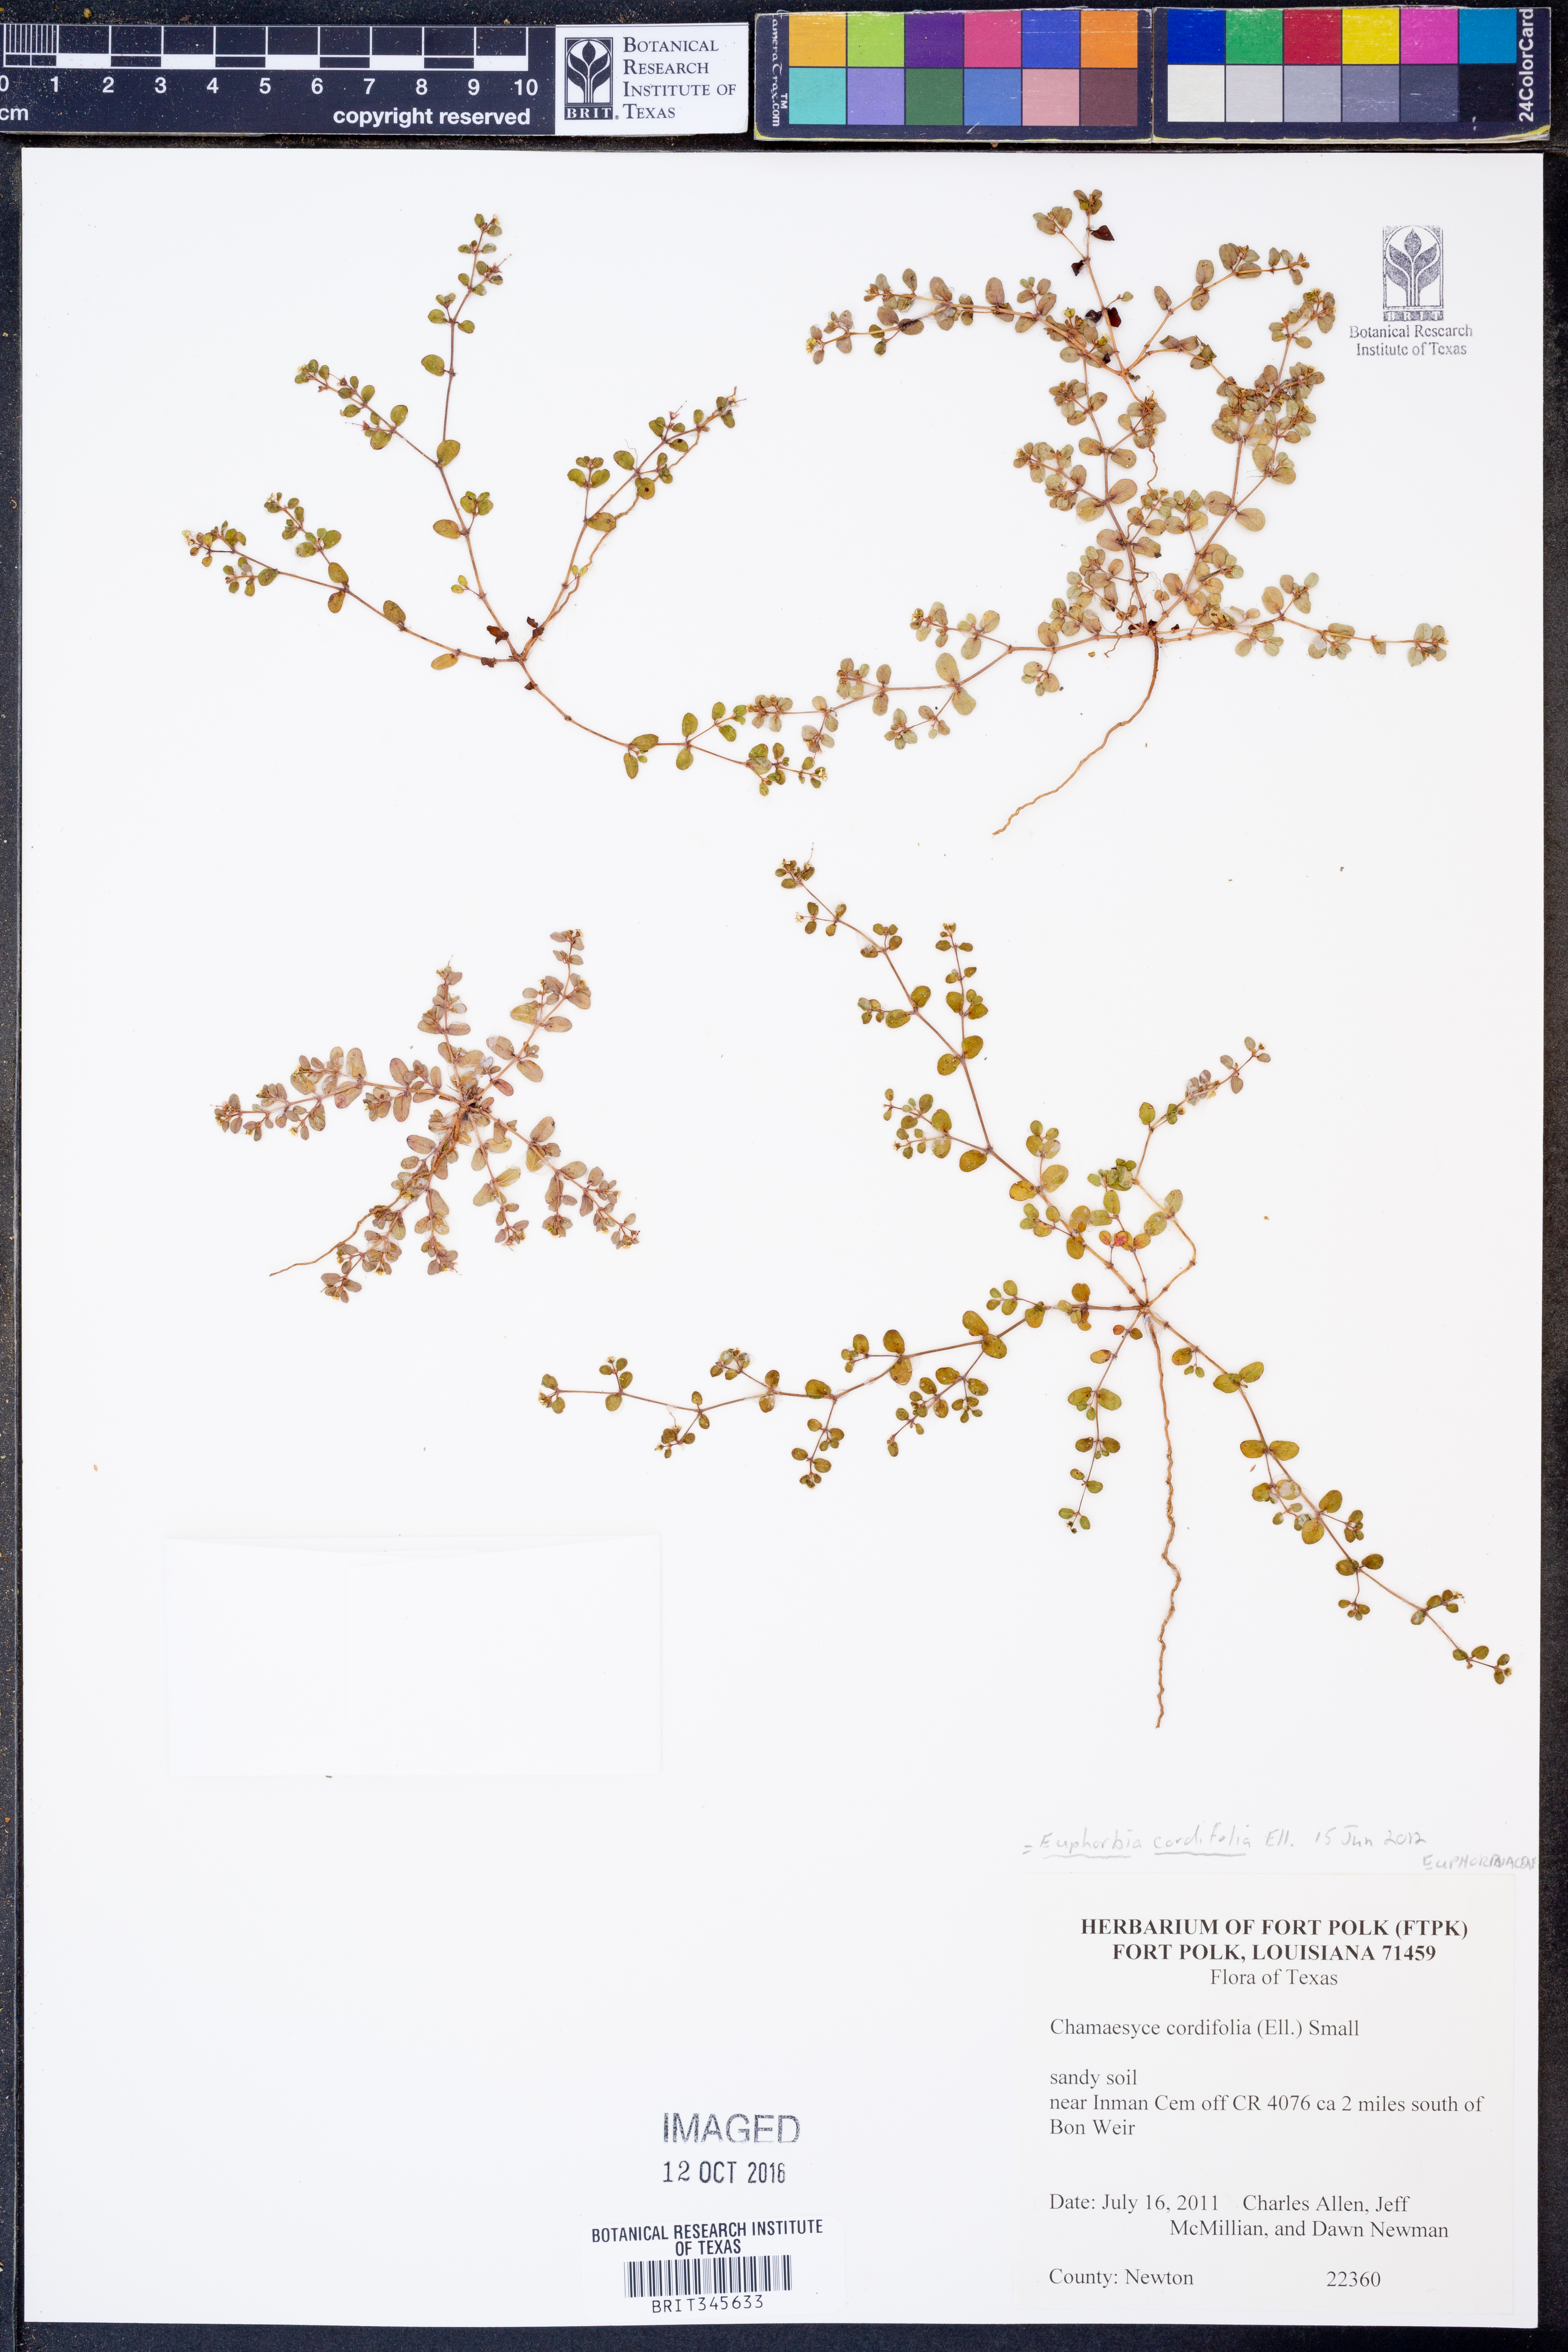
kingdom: Plantae
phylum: Tracheophyta
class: Magnoliopsida
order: Malpighiales
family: Euphorbiaceae
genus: Euphorbia
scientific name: Euphorbia cordifolia
